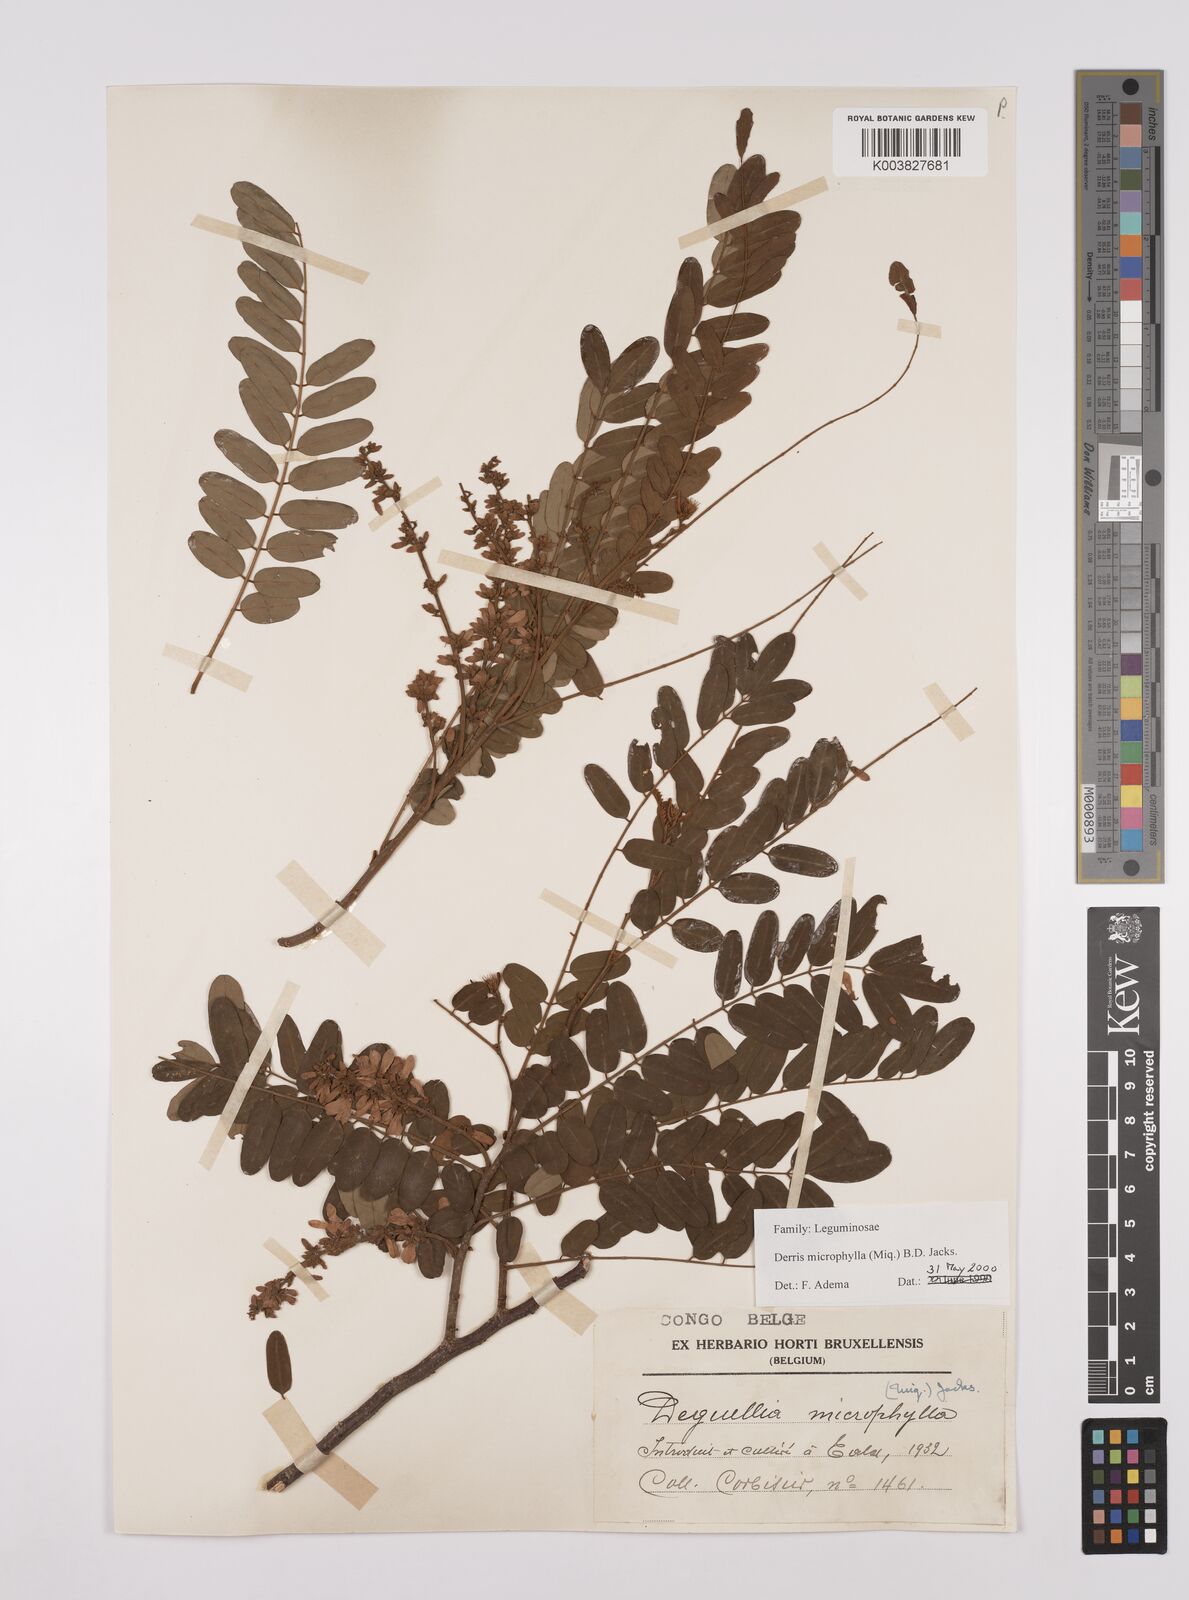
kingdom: Plantae
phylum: Tracheophyta
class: Magnoliopsida
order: Fabales
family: Fabaceae
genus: Brachypterum
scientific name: Brachypterum microphyllum
